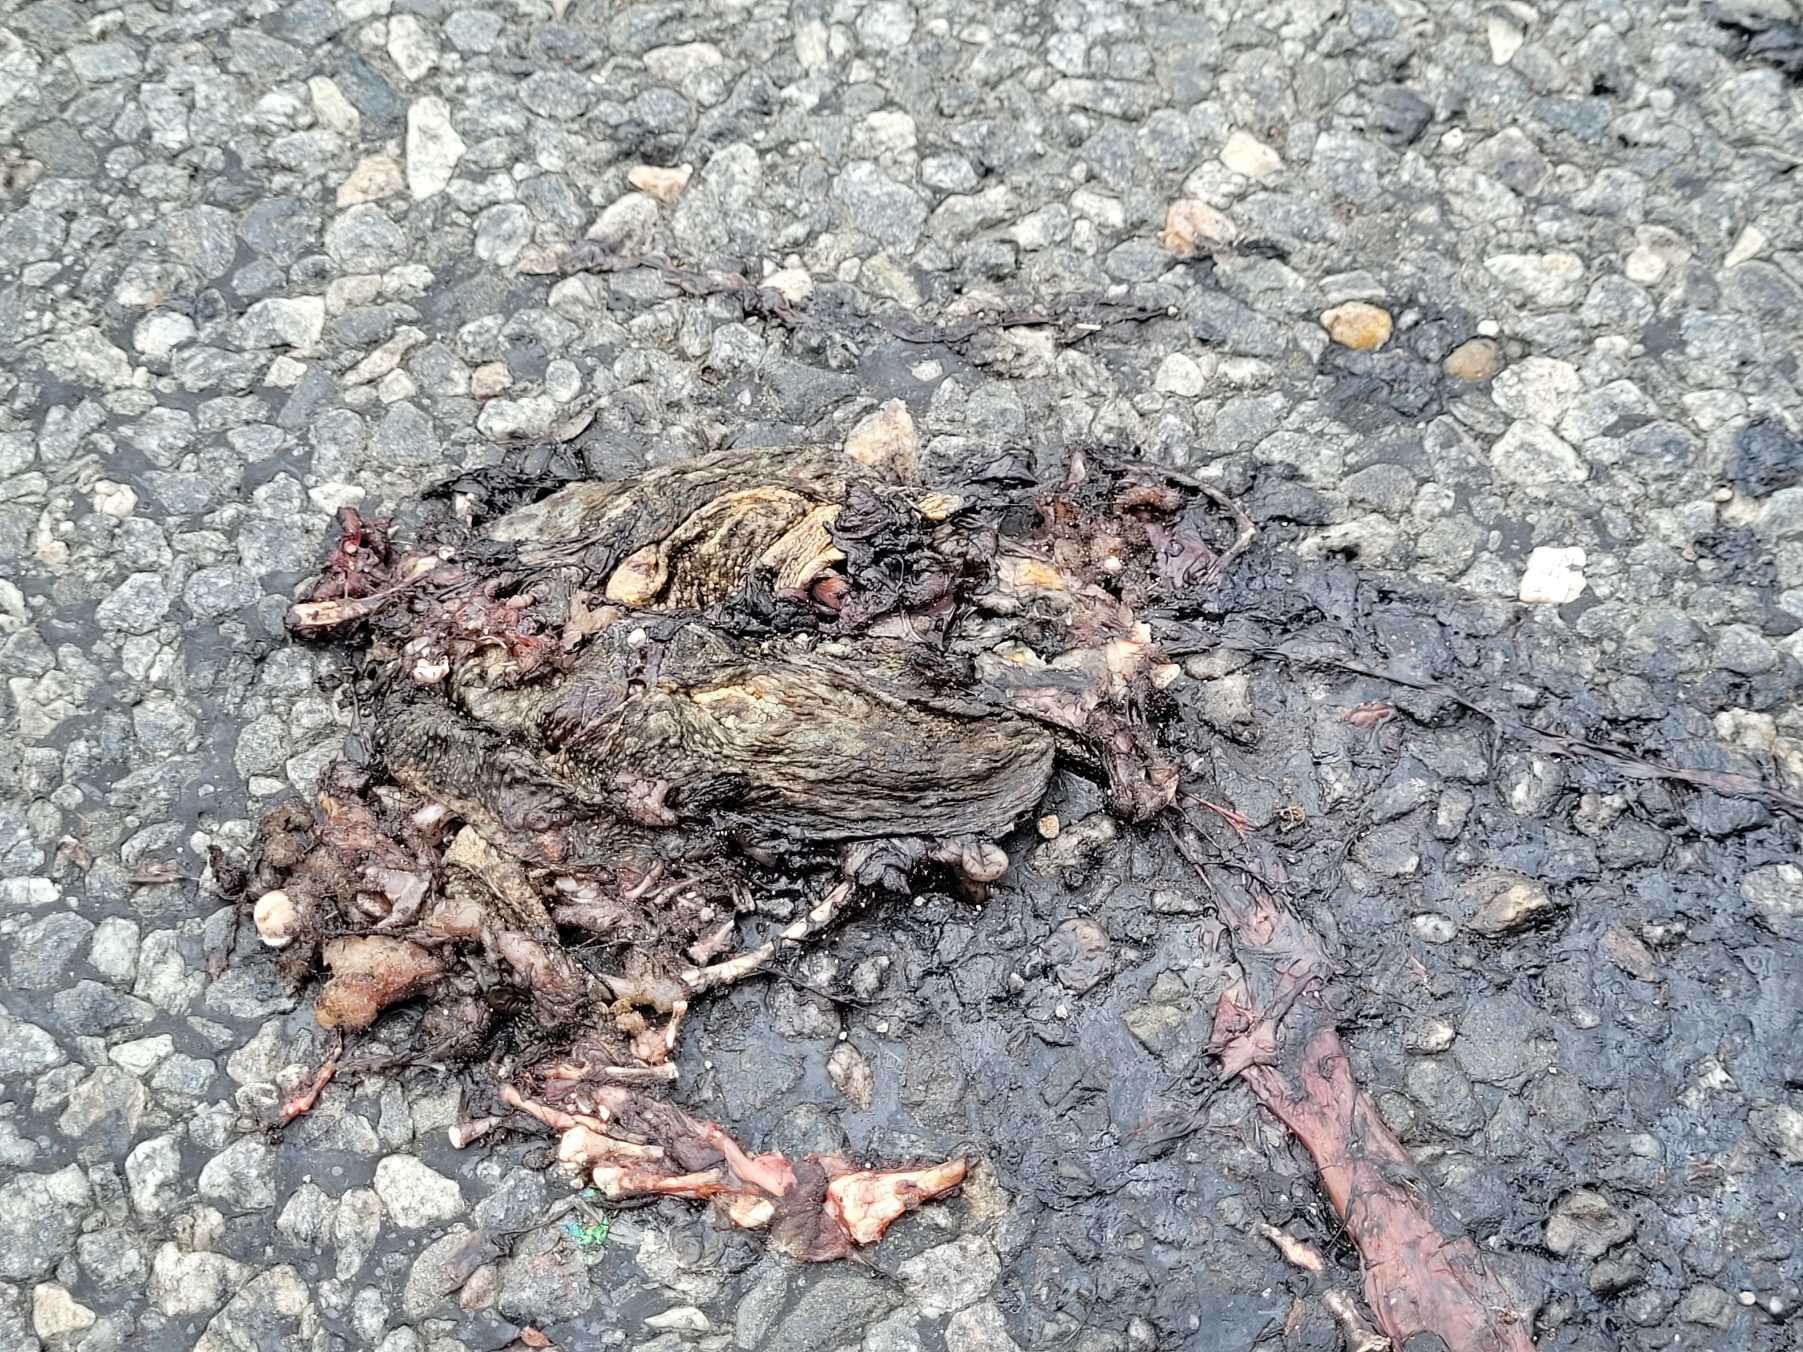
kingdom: Animalia
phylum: Chordata
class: Amphibia
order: Anura
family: Bufonidae
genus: Bufo
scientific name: Bufo bufo
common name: Skrubtudse
